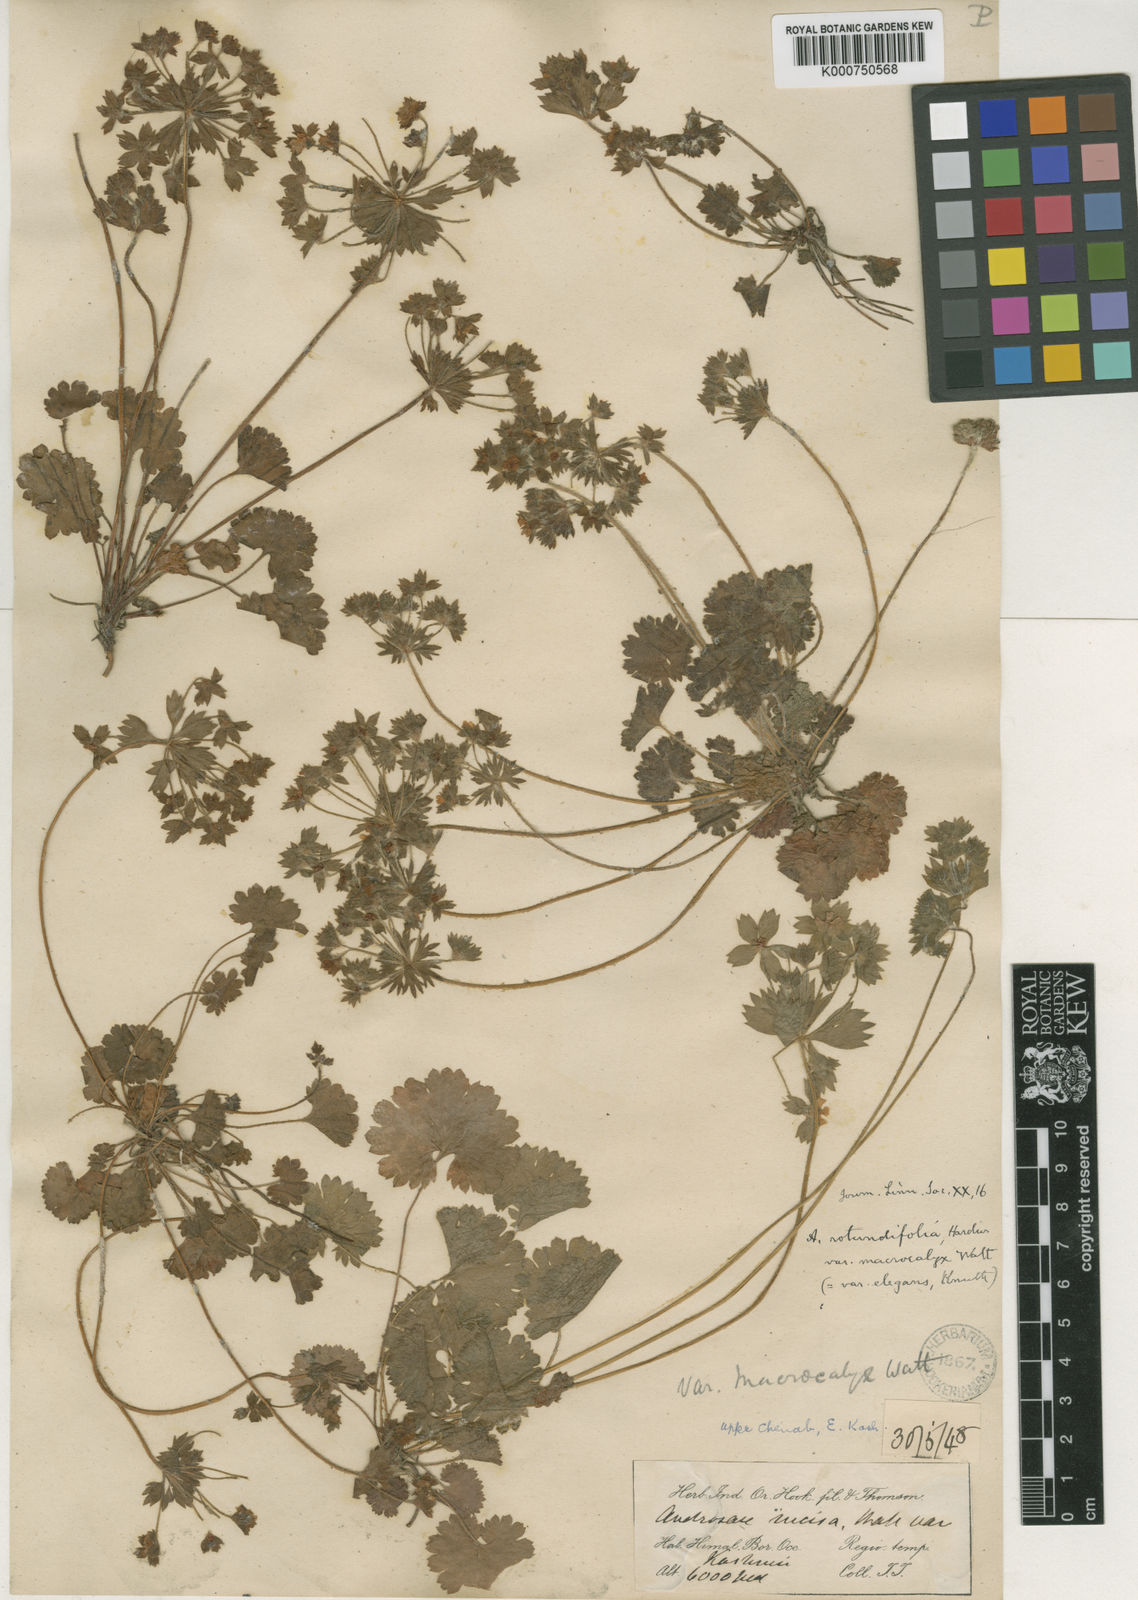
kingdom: Plantae
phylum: Tracheophyta
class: Magnoliopsida
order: Ericales
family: Primulaceae
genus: Androsace
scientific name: Androsace rotundifolia
